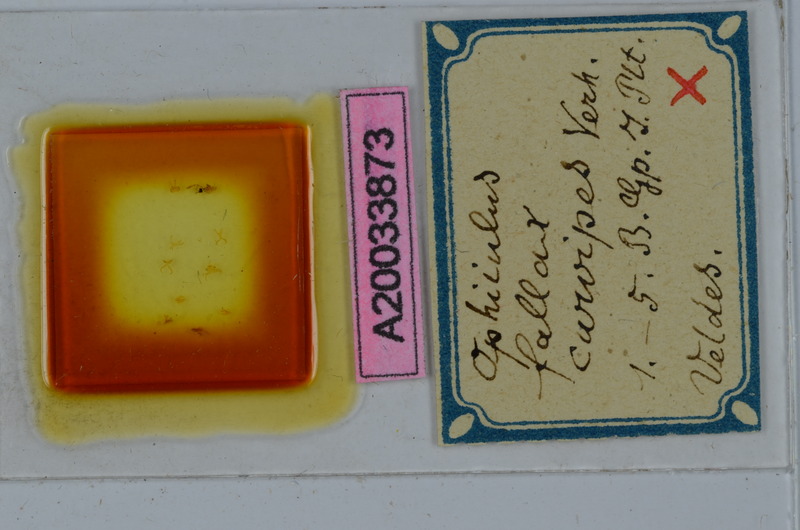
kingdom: Animalia
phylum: Arthropoda
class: Diplopoda
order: Julida
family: Julidae
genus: Ophiiulus
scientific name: Ophiiulus fallax
